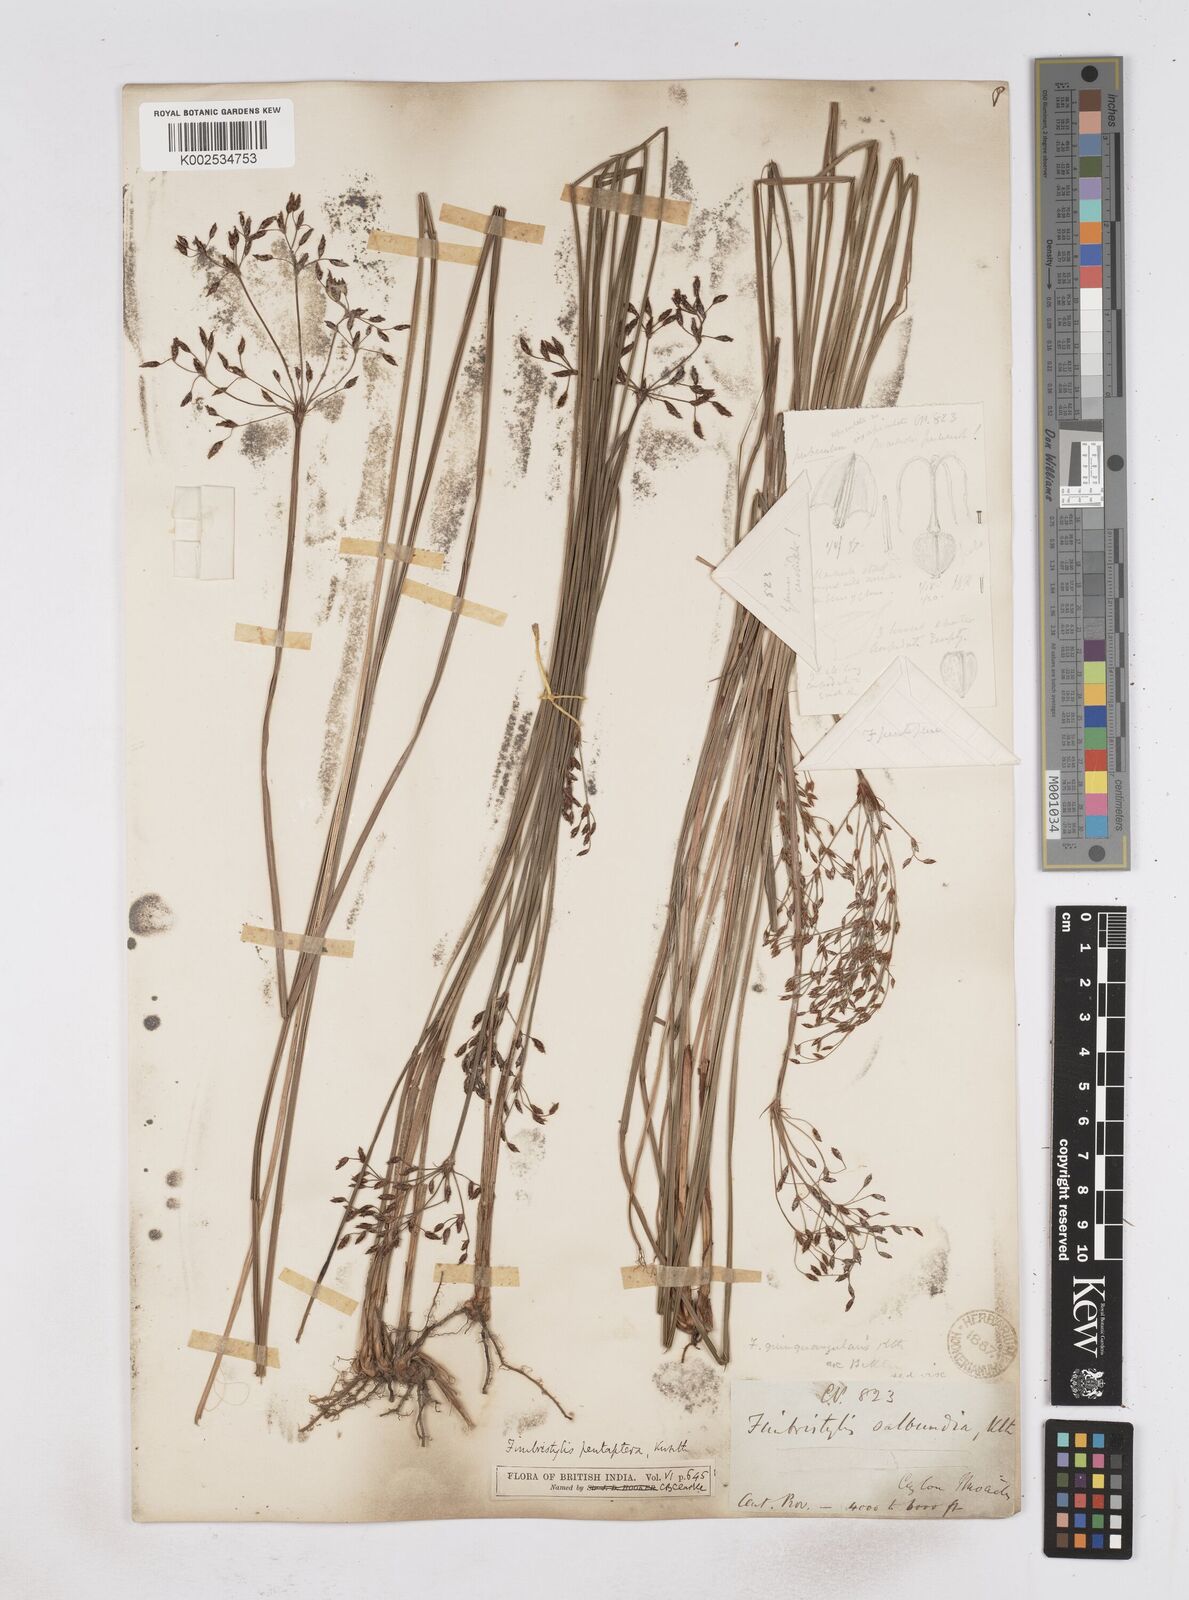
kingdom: Plantae
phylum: Tracheophyta
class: Liliopsida
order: Poales
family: Cyperaceae
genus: Fimbristylis
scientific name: Fimbristylis salbundia
